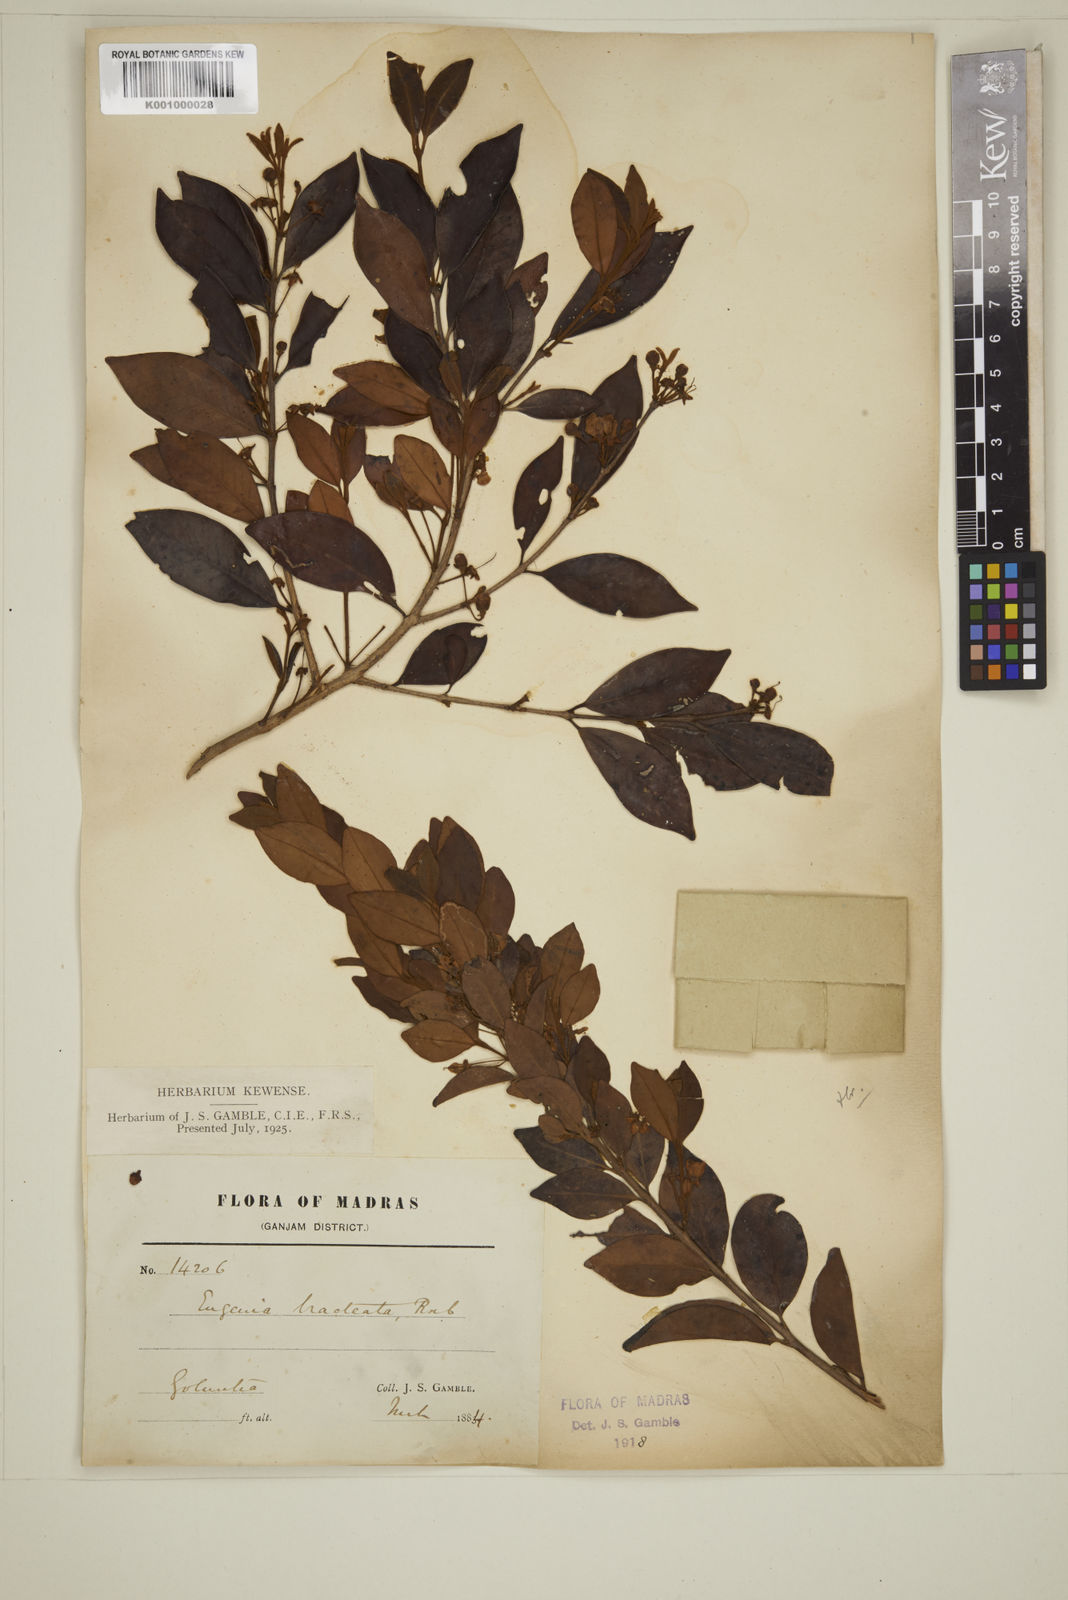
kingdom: Plantae
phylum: Tracheophyta
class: Magnoliopsida
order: Myrtales
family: Myrtaceae
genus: Myrcia
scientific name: Myrcia bracteata
